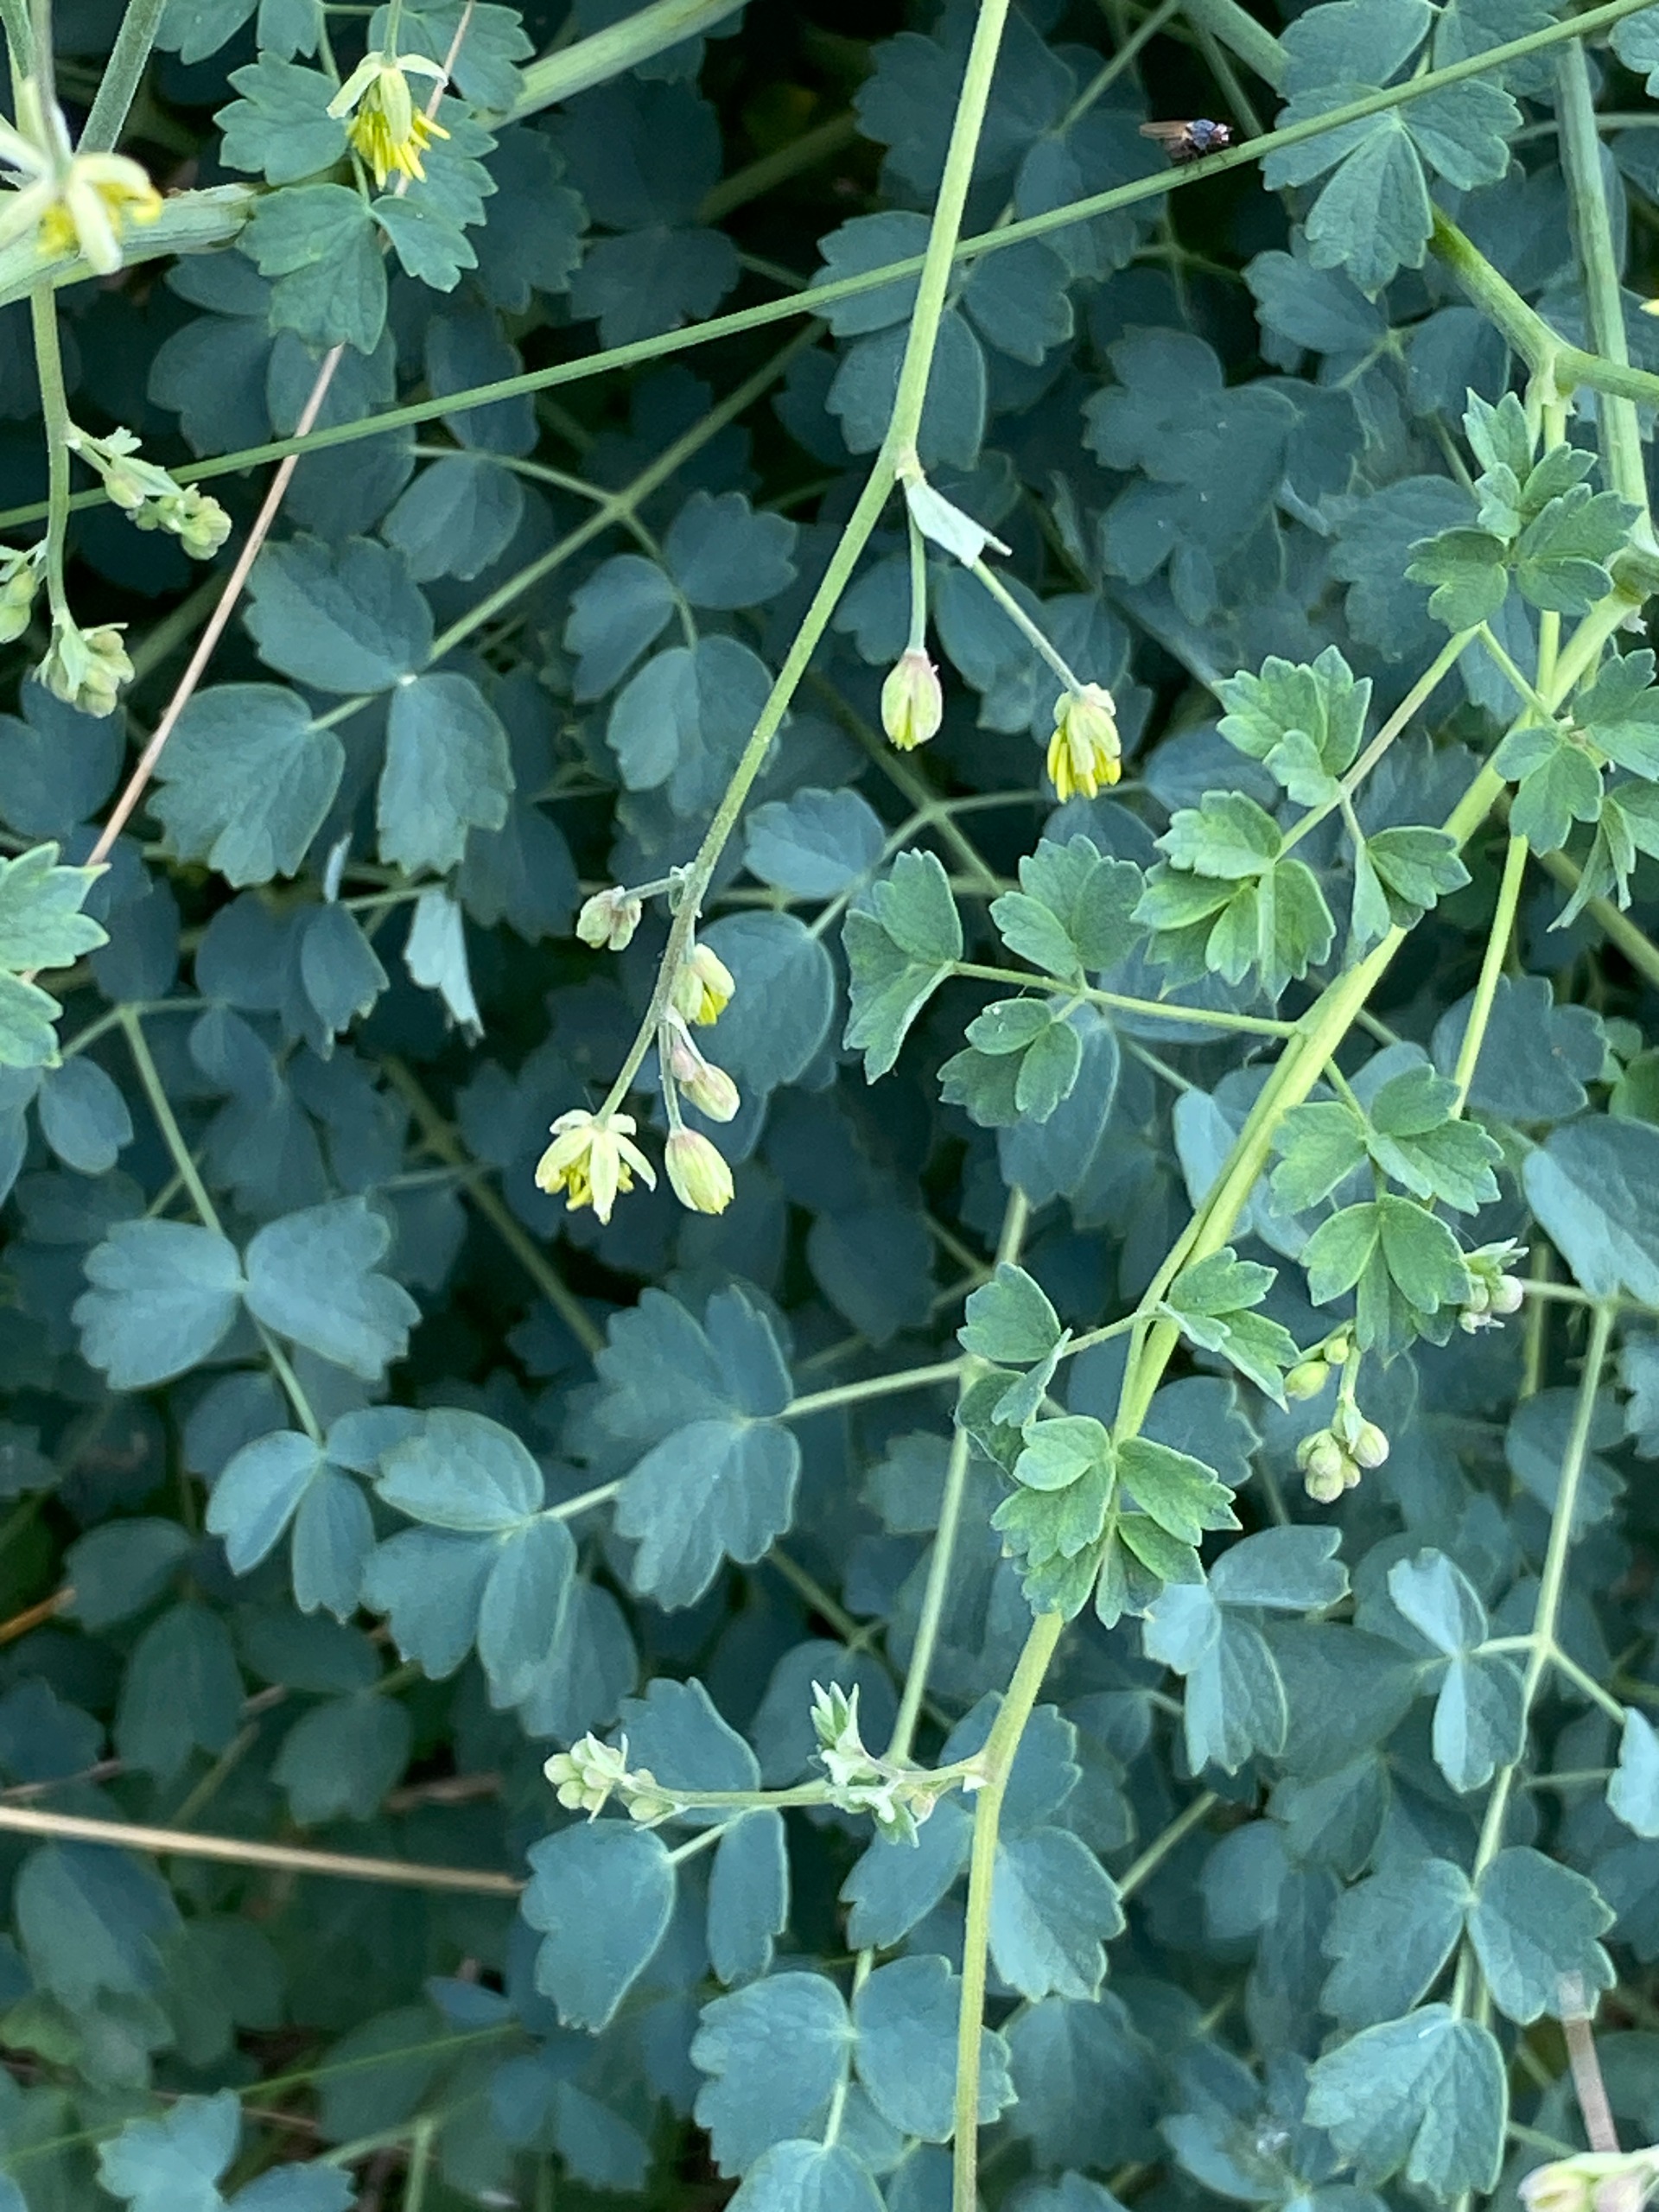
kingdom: Plantae
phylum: Tracheophyta
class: Magnoliopsida
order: Ranunculales
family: Ranunculaceae
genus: Thalictrum
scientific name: Thalictrum minus
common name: Sand-frøstjerne
